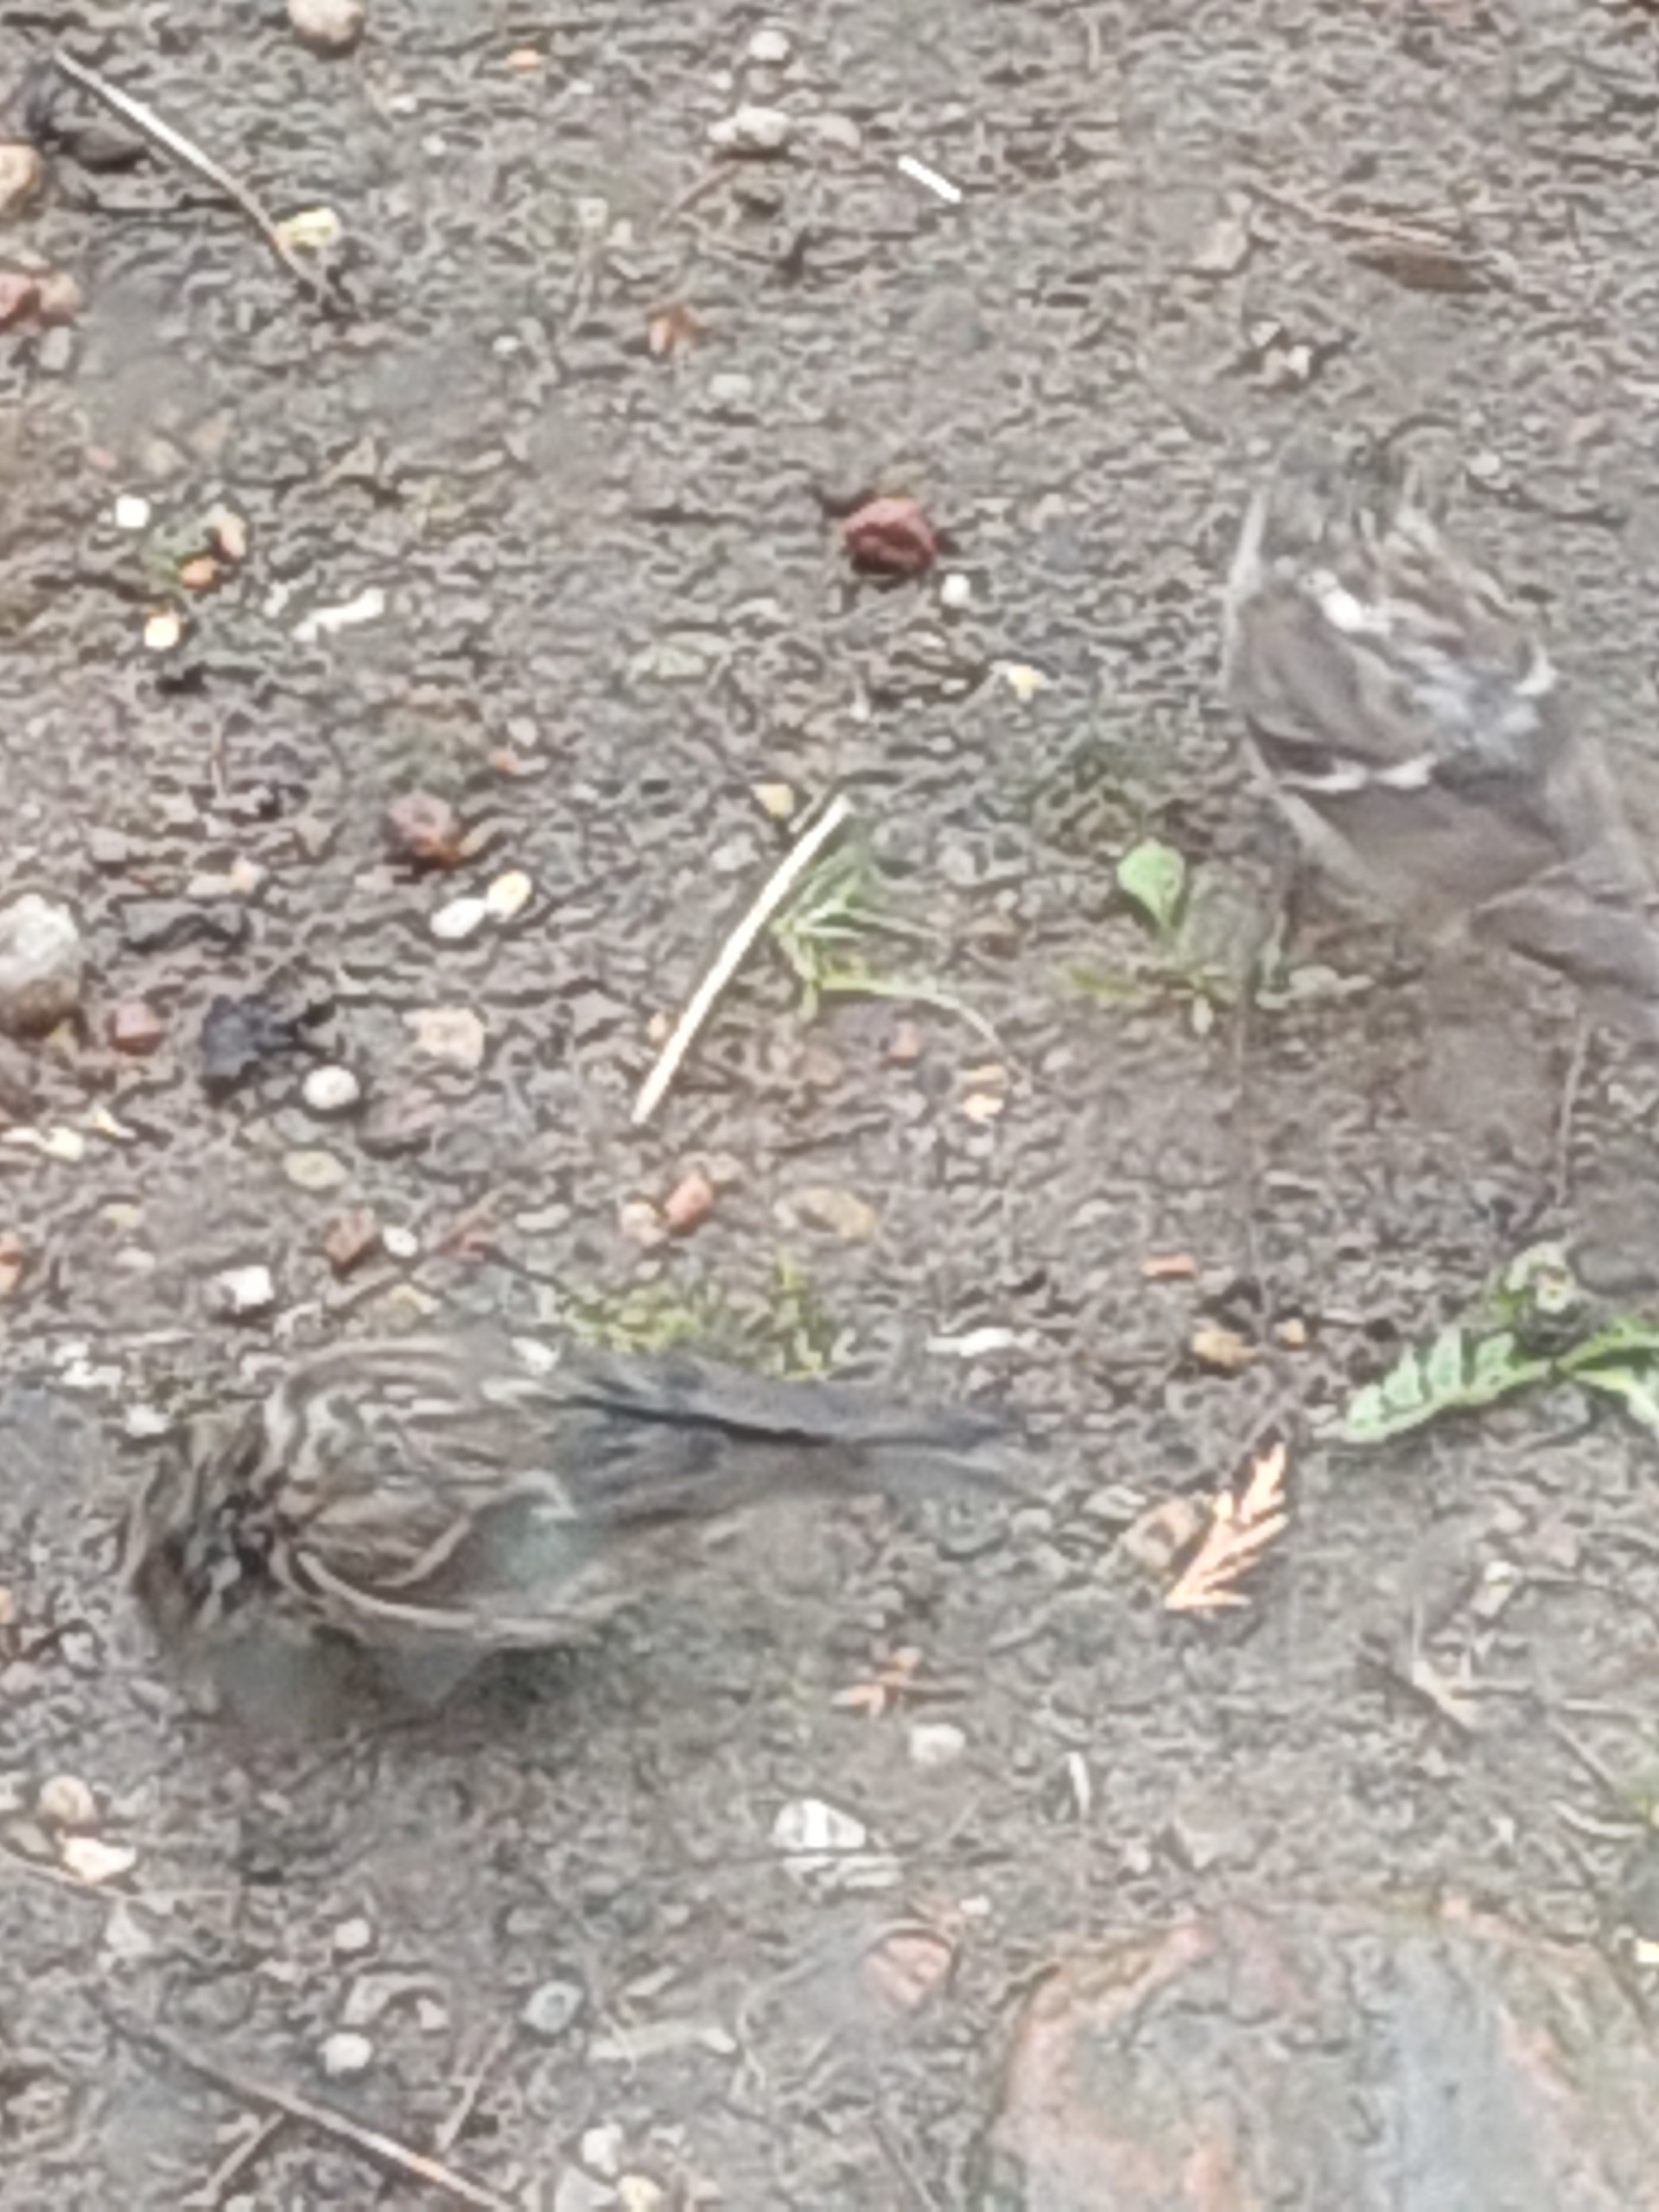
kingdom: Animalia
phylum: Chordata
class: Aves
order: Passeriformes
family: Fringillidae
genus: Acanthis
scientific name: Acanthis flammea
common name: Nordlig gråsisken
